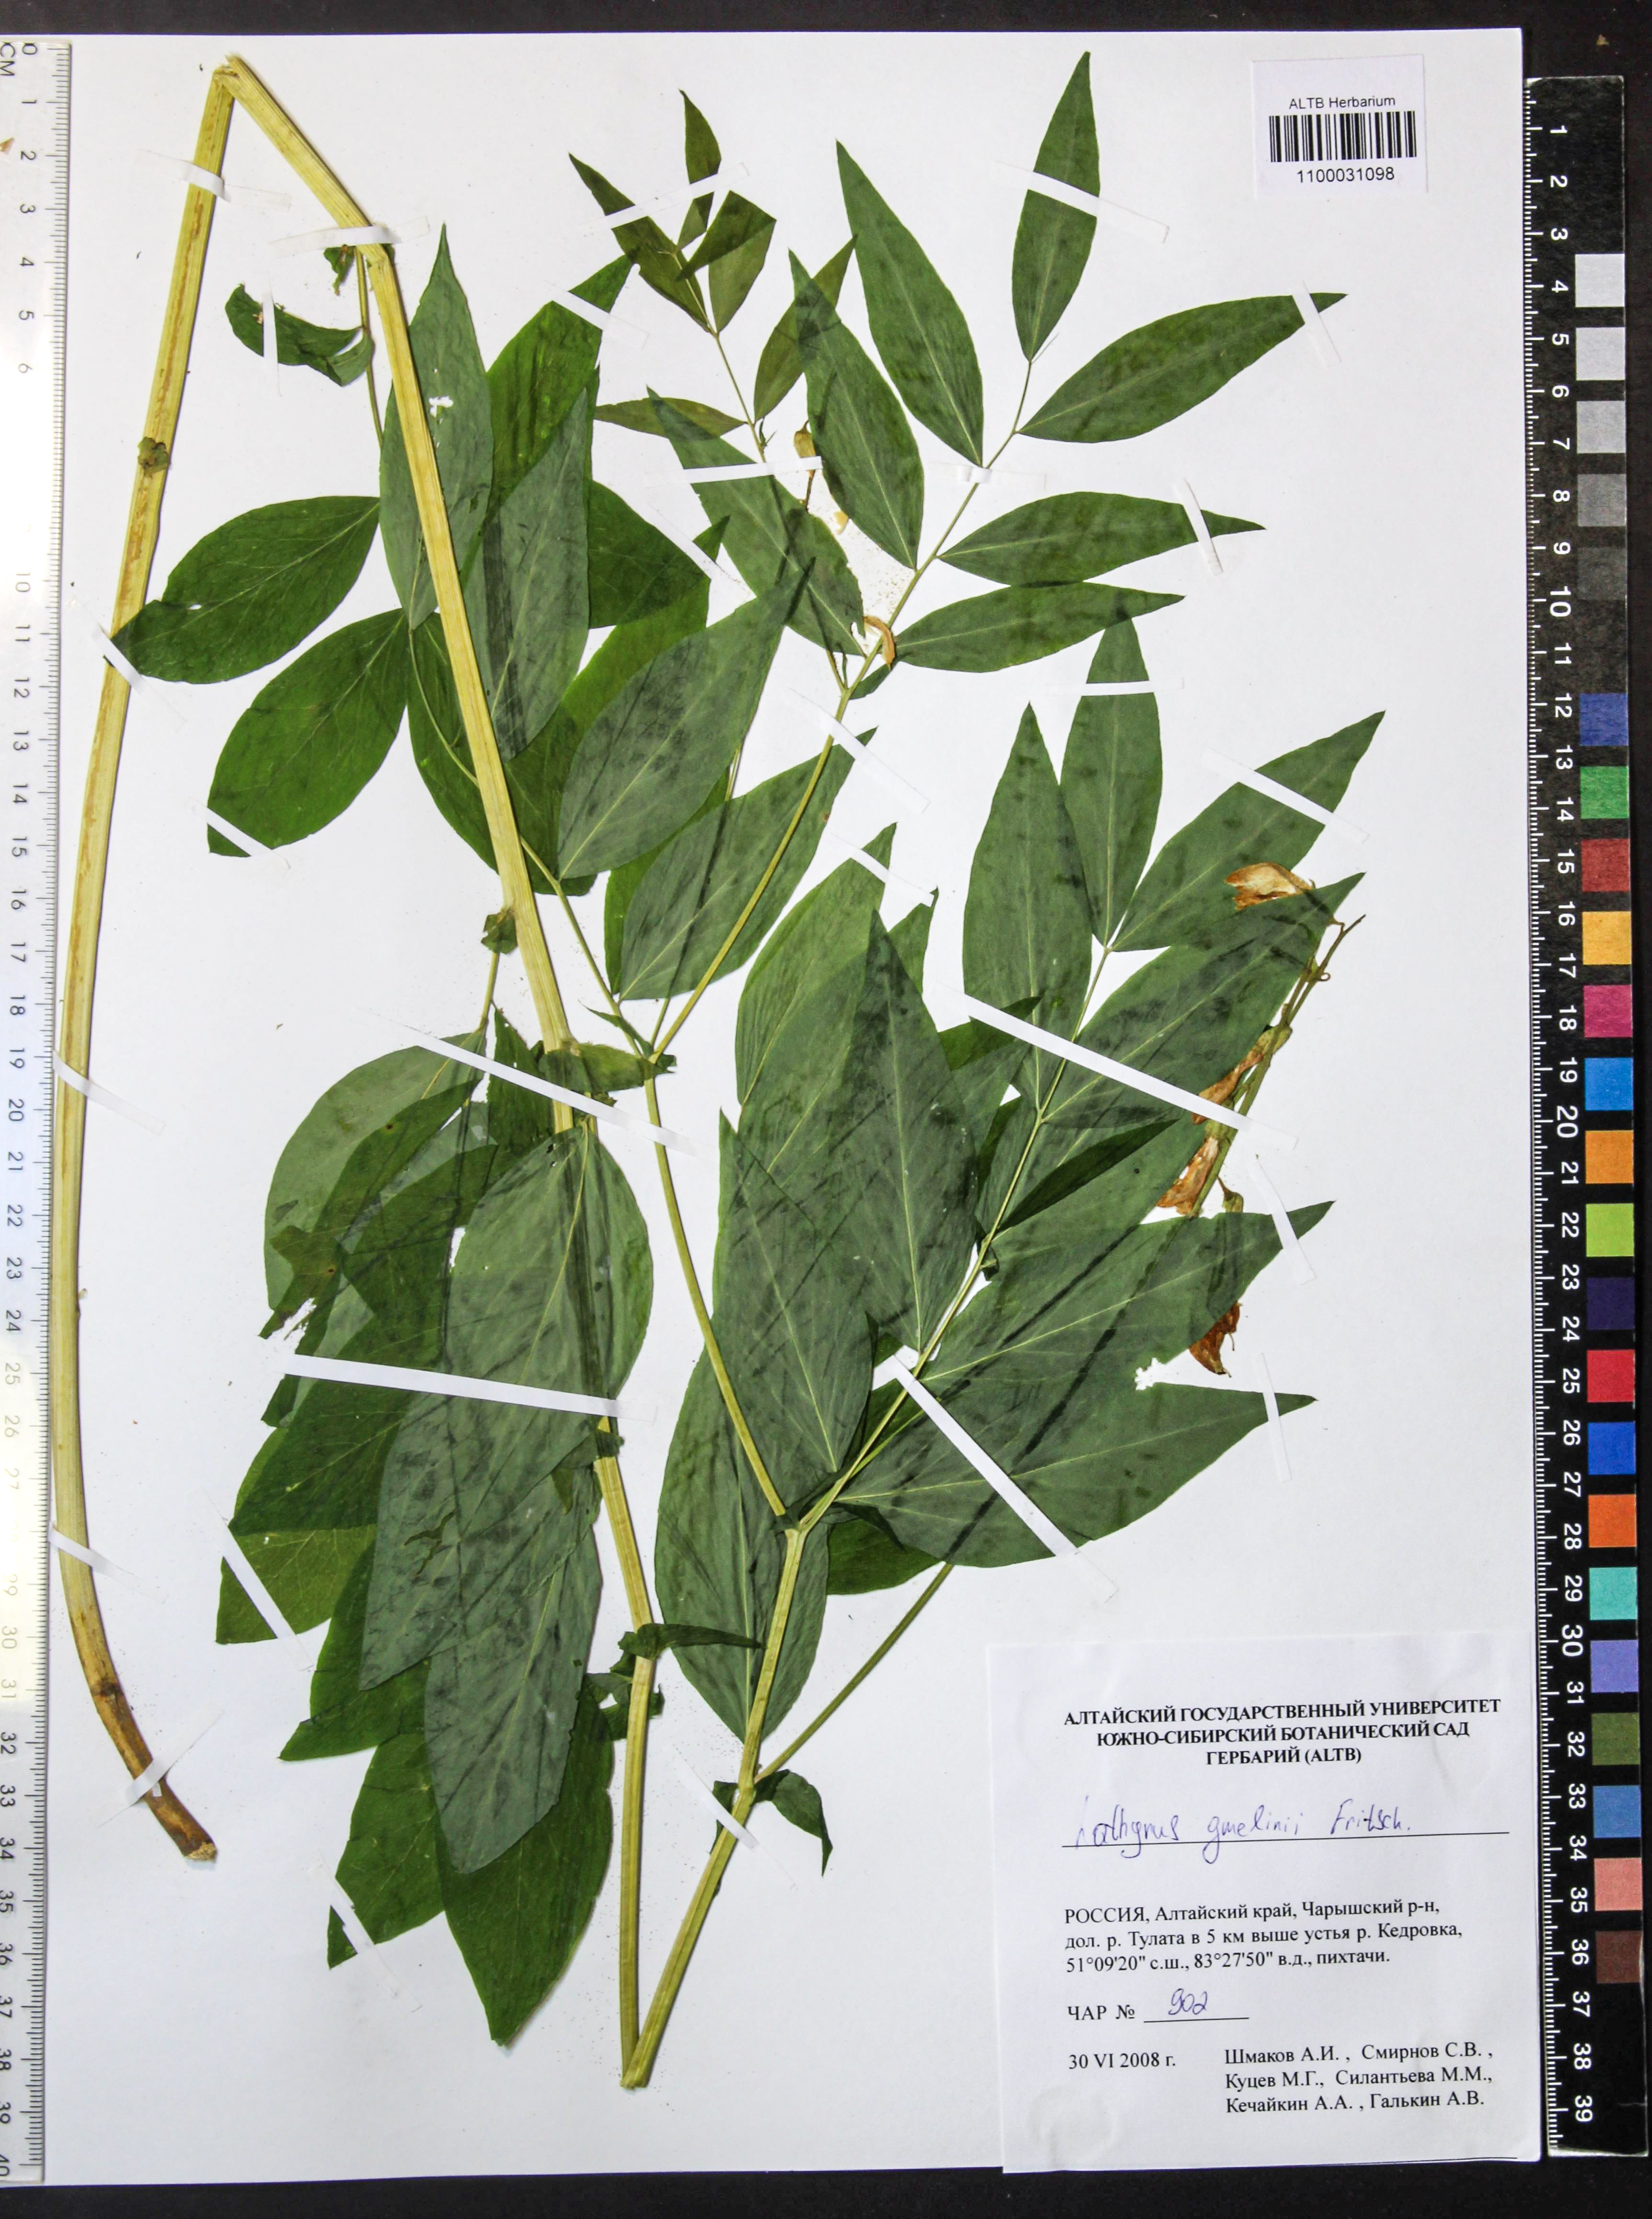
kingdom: Plantae
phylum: Tracheophyta
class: Magnoliopsida
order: Fabales
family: Fabaceae
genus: Lathyrus
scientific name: Lathyrus gmelinii
